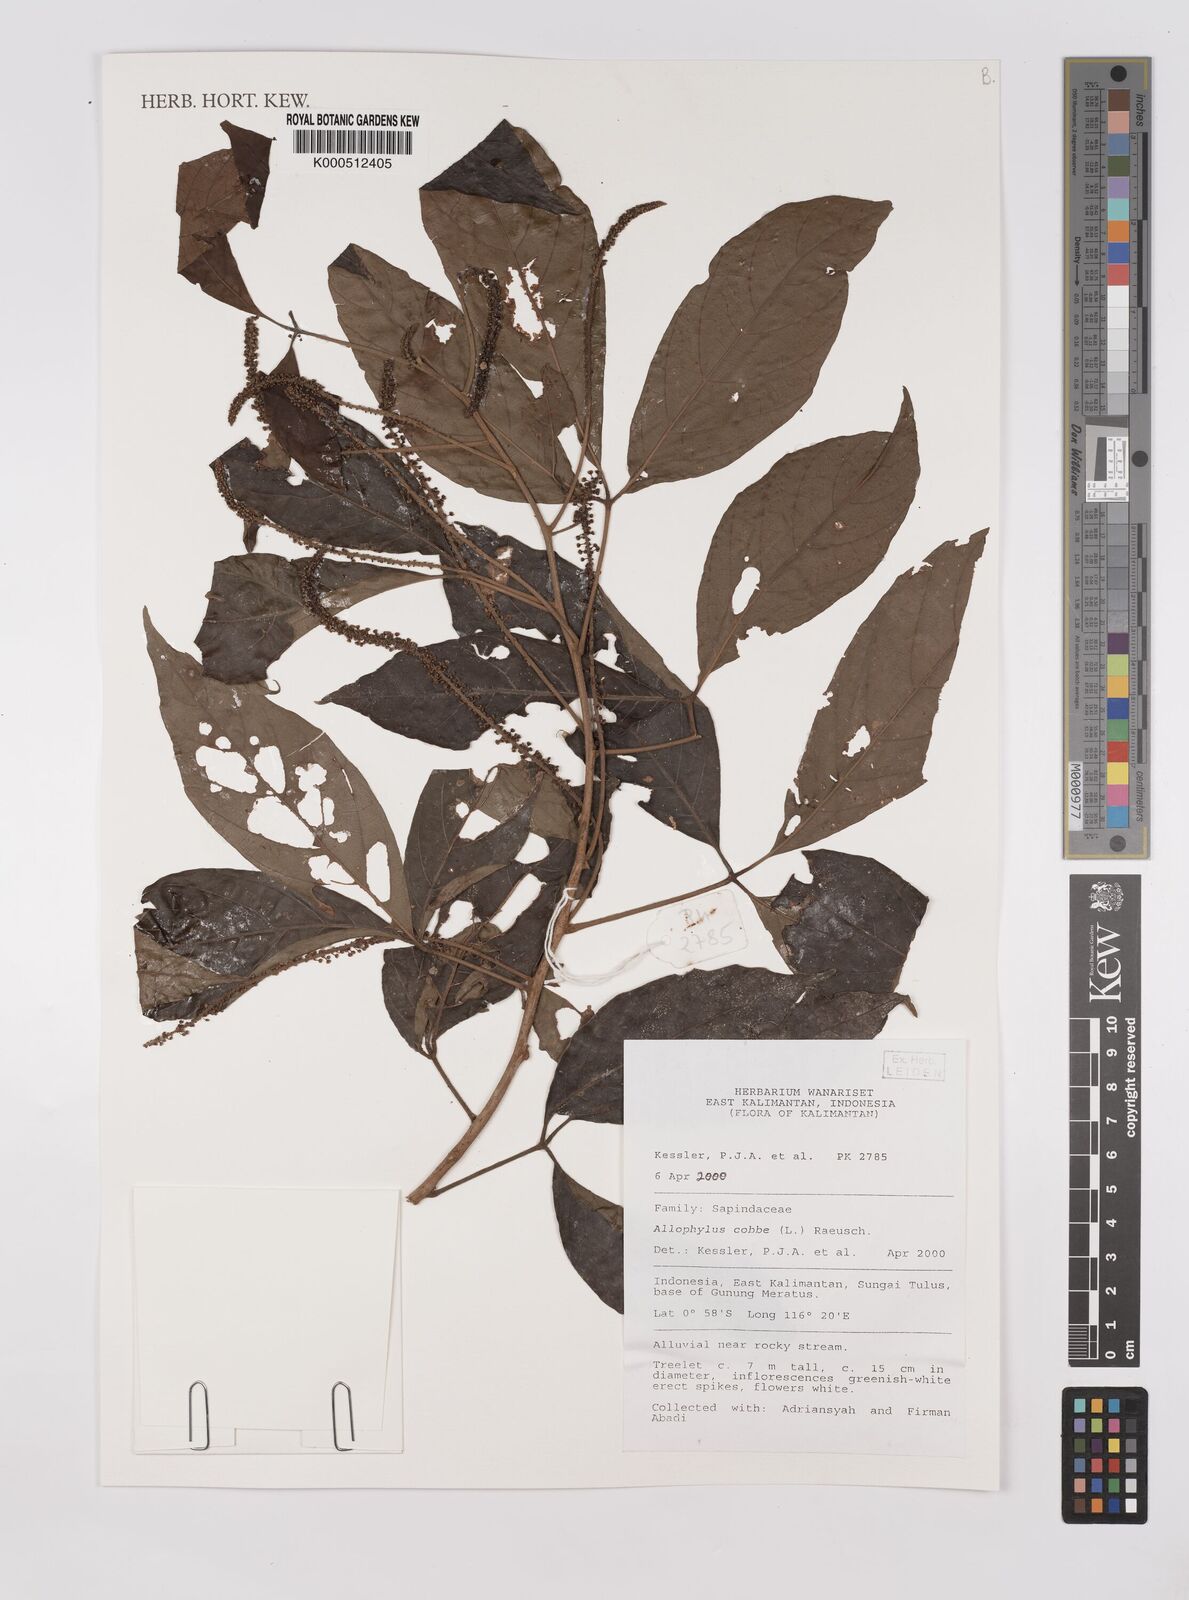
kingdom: Plantae
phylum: Tracheophyta
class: Magnoliopsida
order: Sapindales
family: Sapindaceae
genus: Allophylus
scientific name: Allophylus
